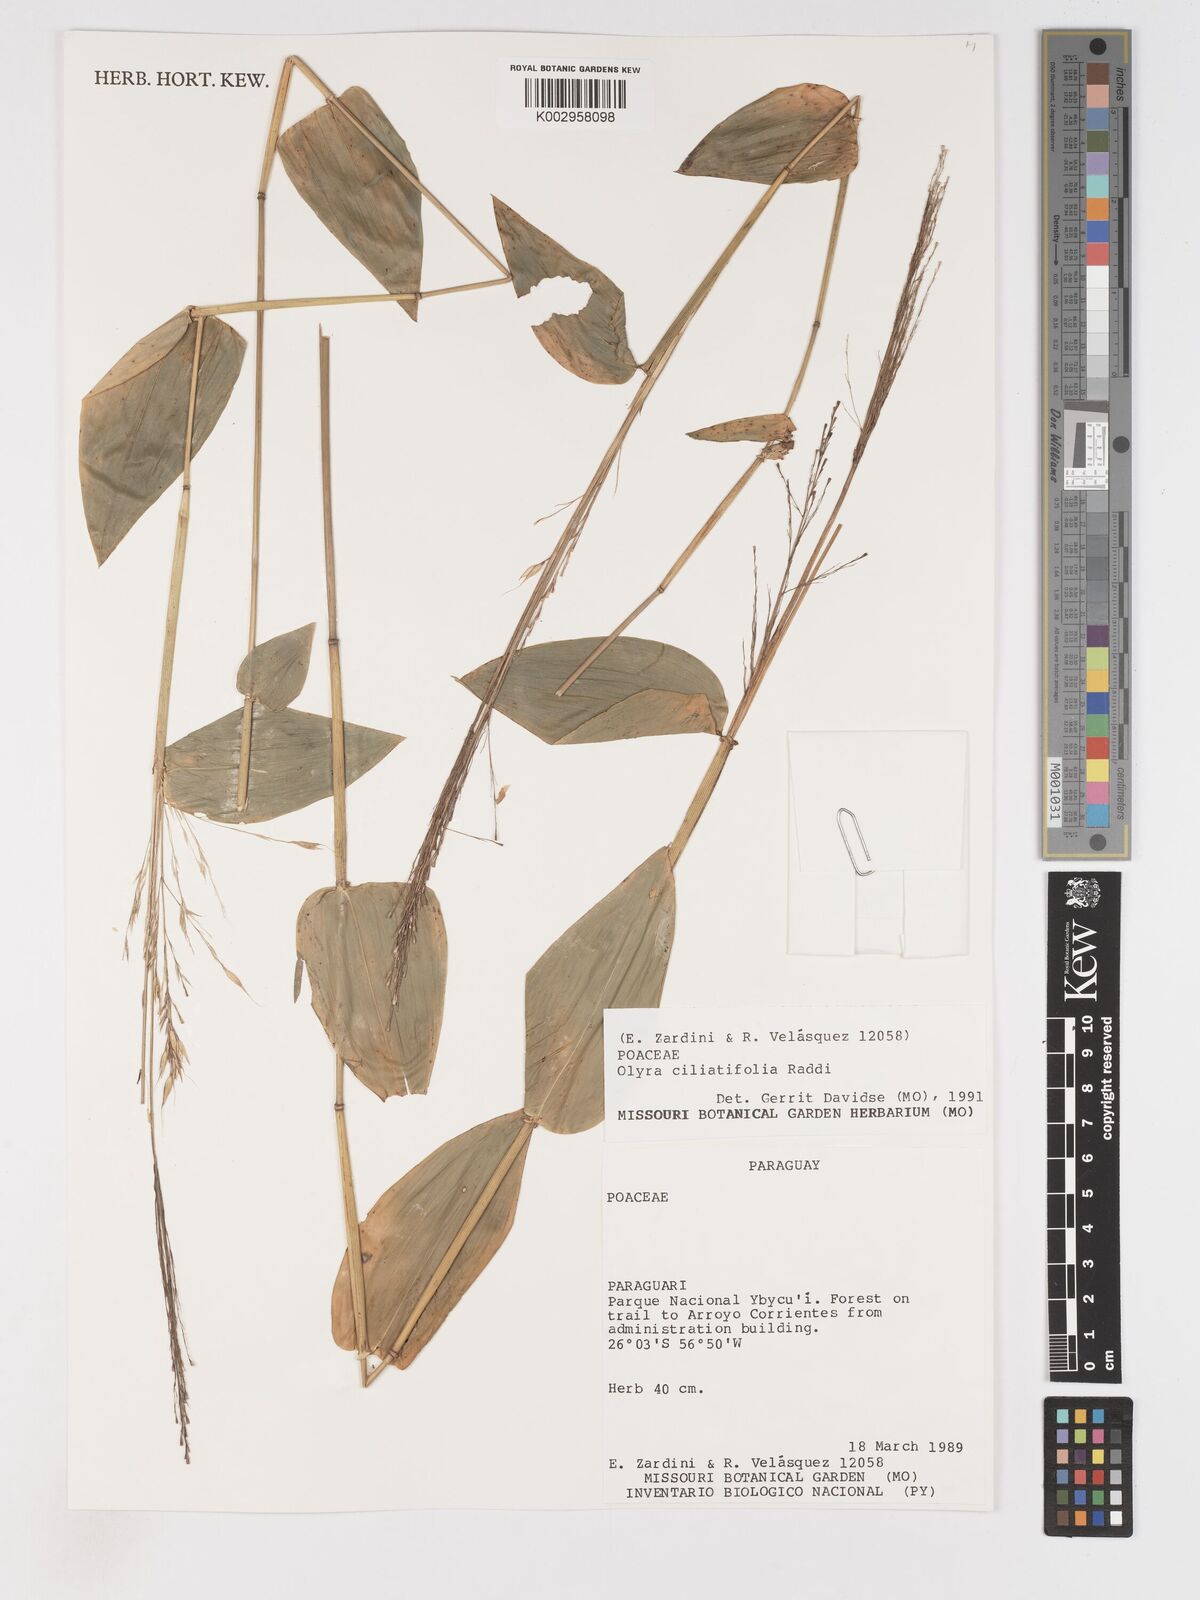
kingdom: Plantae
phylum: Tracheophyta
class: Liliopsida
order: Poales
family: Poaceae
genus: Olyra
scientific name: Olyra ciliatifolia
